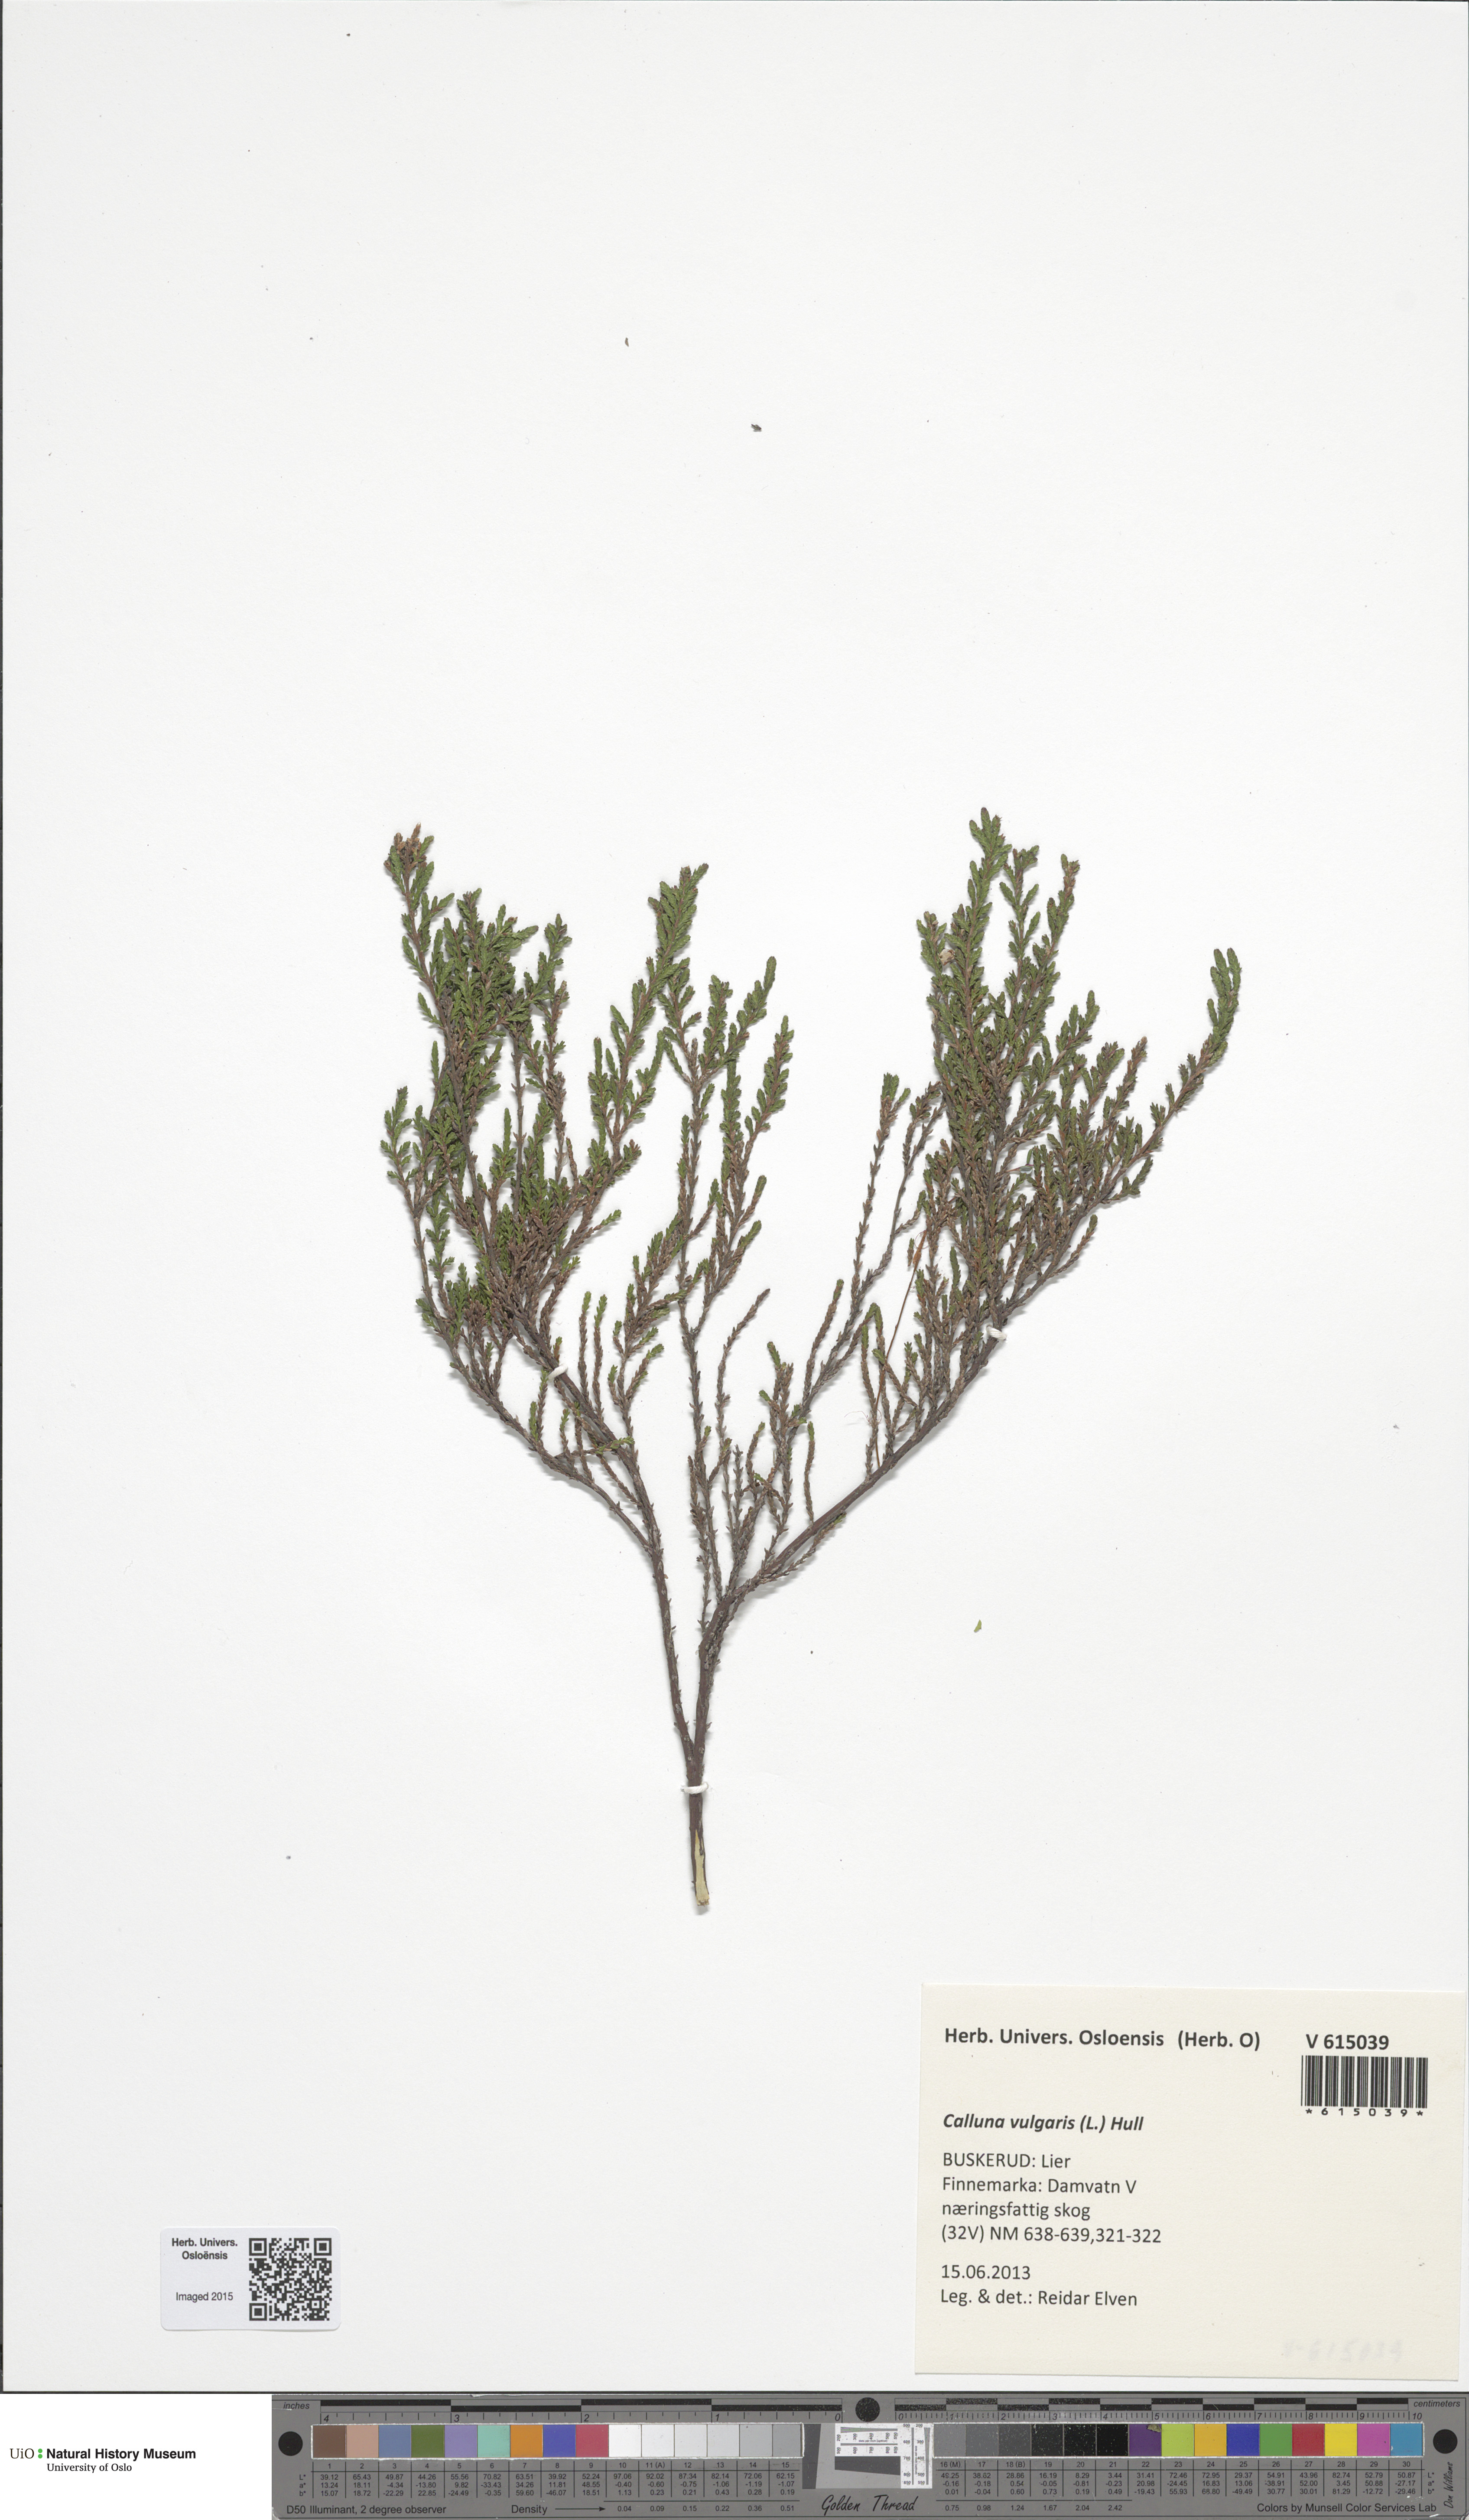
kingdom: Plantae
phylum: Tracheophyta
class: Magnoliopsida
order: Ericales
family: Ericaceae
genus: Calluna
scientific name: Calluna vulgaris
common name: Heather
